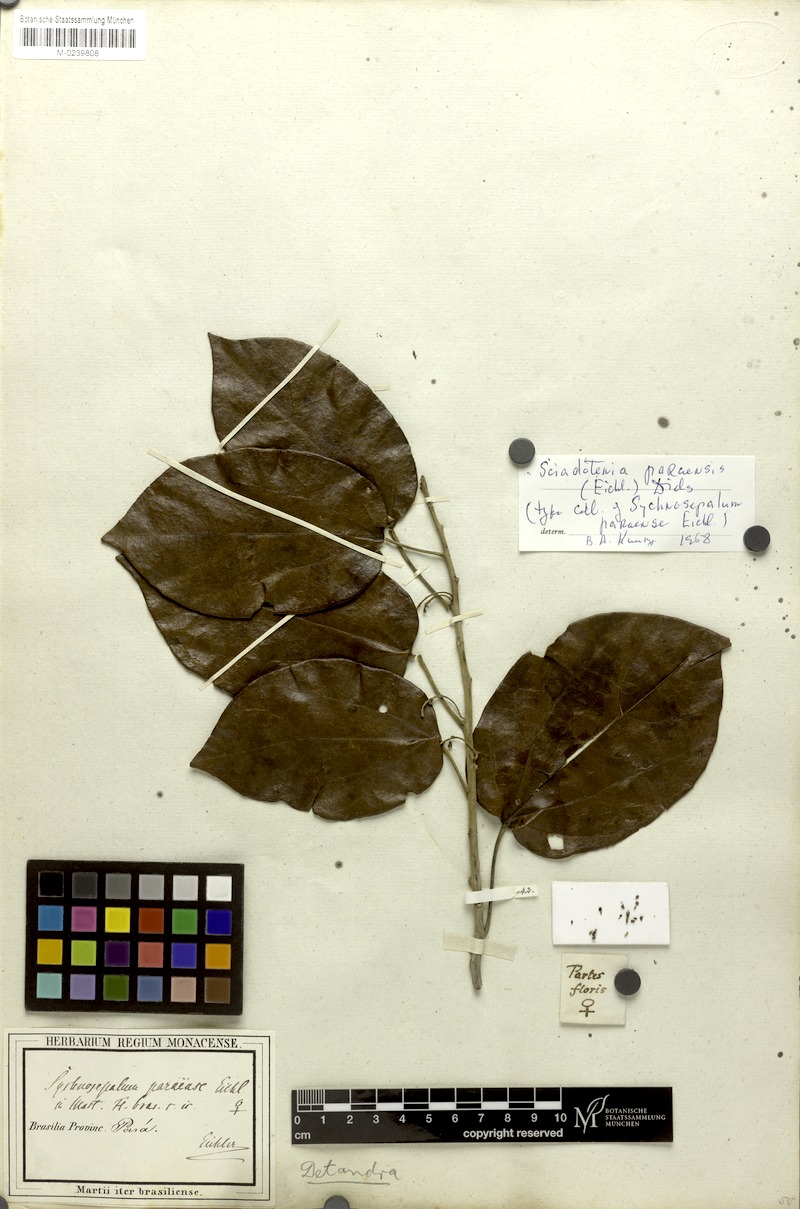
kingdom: Plantae
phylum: Tracheophyta
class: Magnoliopsida
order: Ranunculales
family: Menispermaceae
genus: Sciadotenia
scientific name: Sciadotenia paraensis
